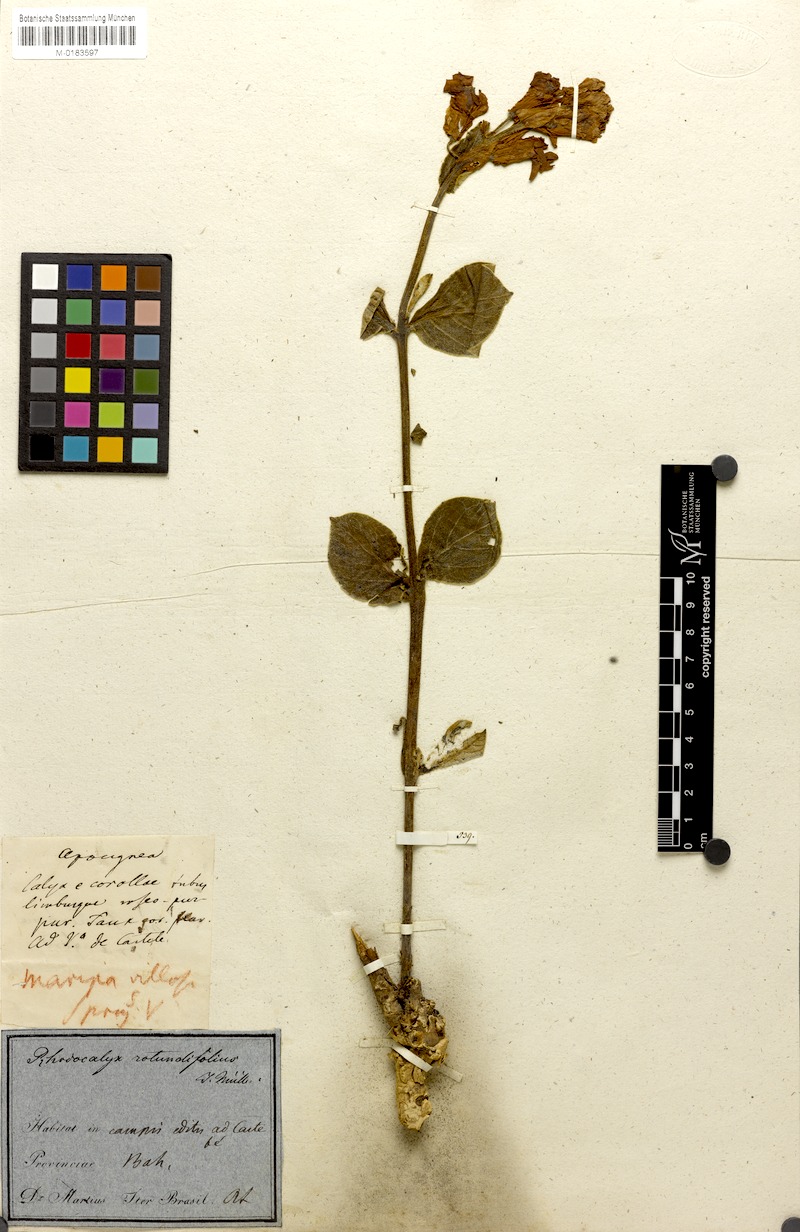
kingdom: Plantae
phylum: Tracheophyta
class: Magnoliopsida
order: Gentianales
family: Apocynaceae
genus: Prestonia
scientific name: Prestonia erecta
